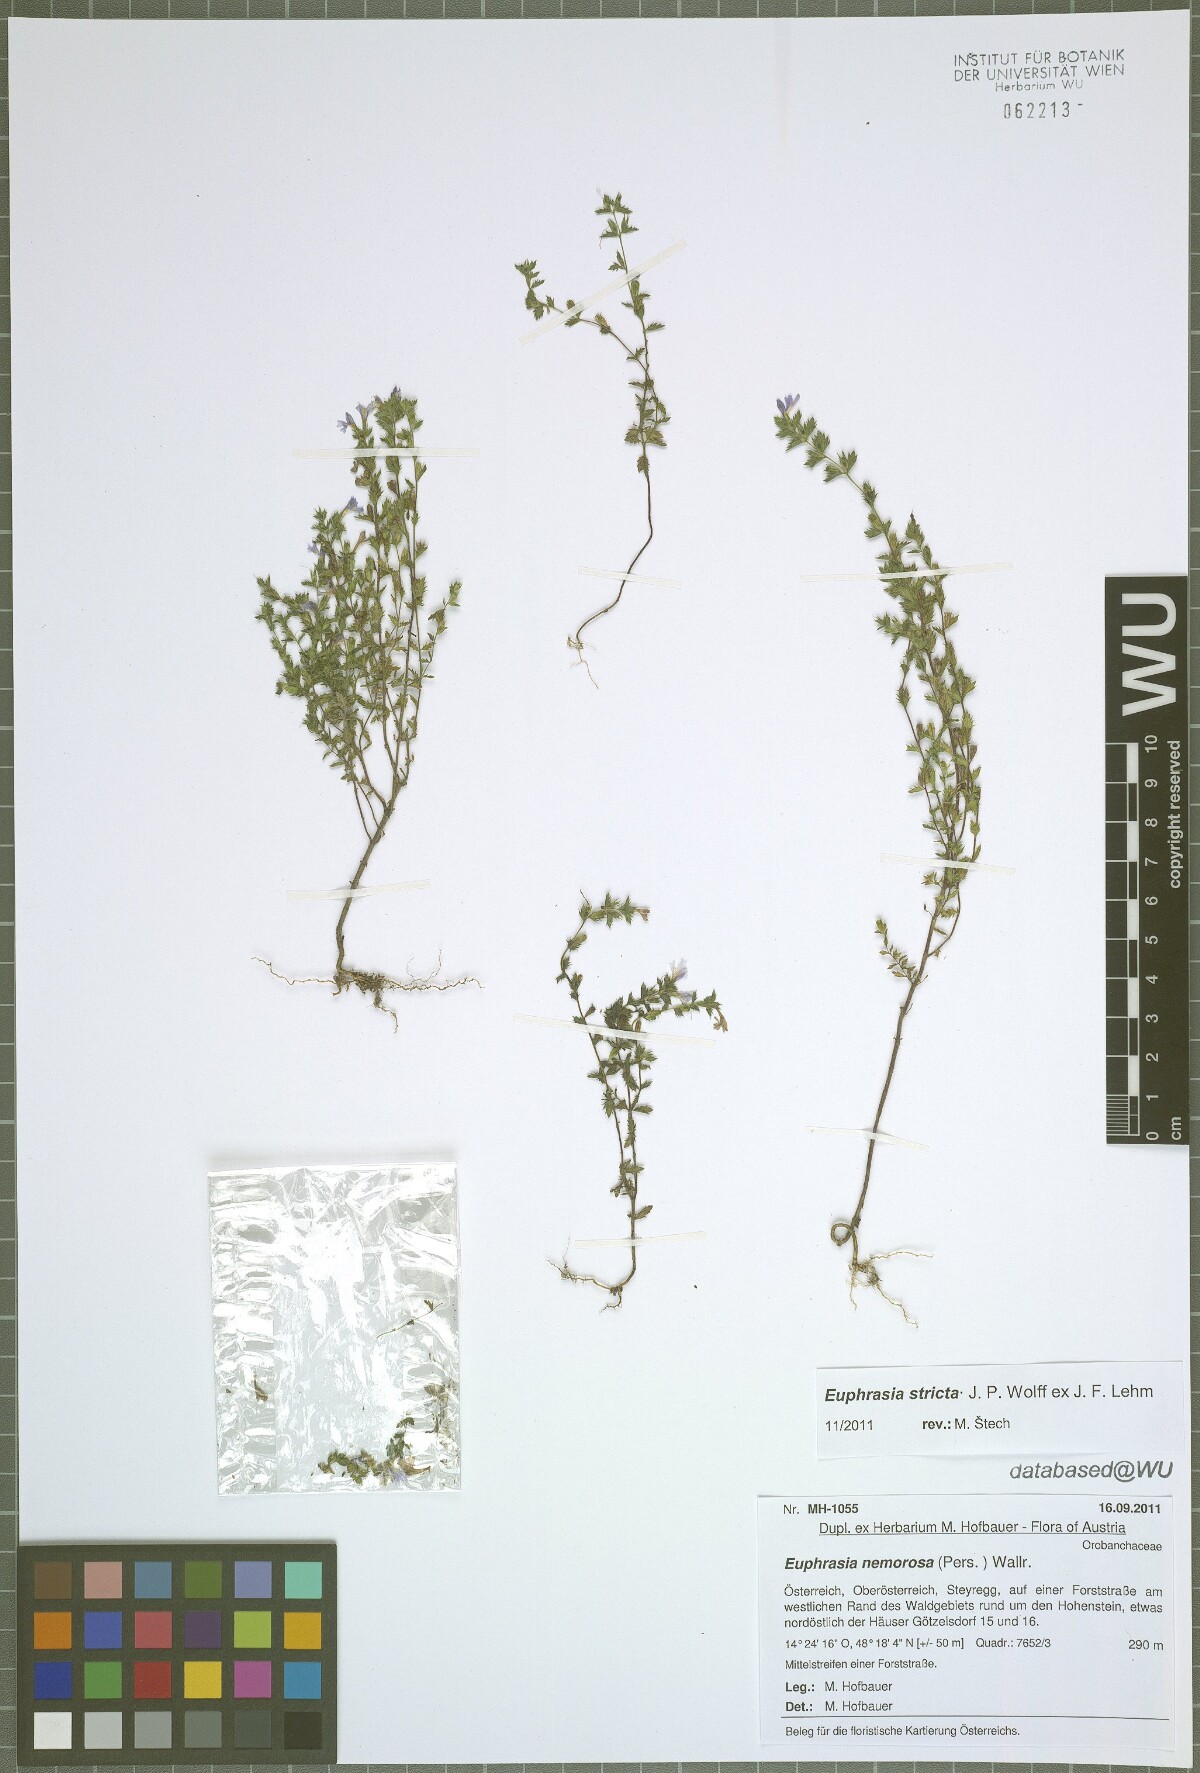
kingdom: Plantae
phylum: Tracheophyta
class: Magnoliopsida
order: Lamiales
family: Orobanchaceae
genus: Euphrasia
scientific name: Euphrasia stricta
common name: Drug eyebright
